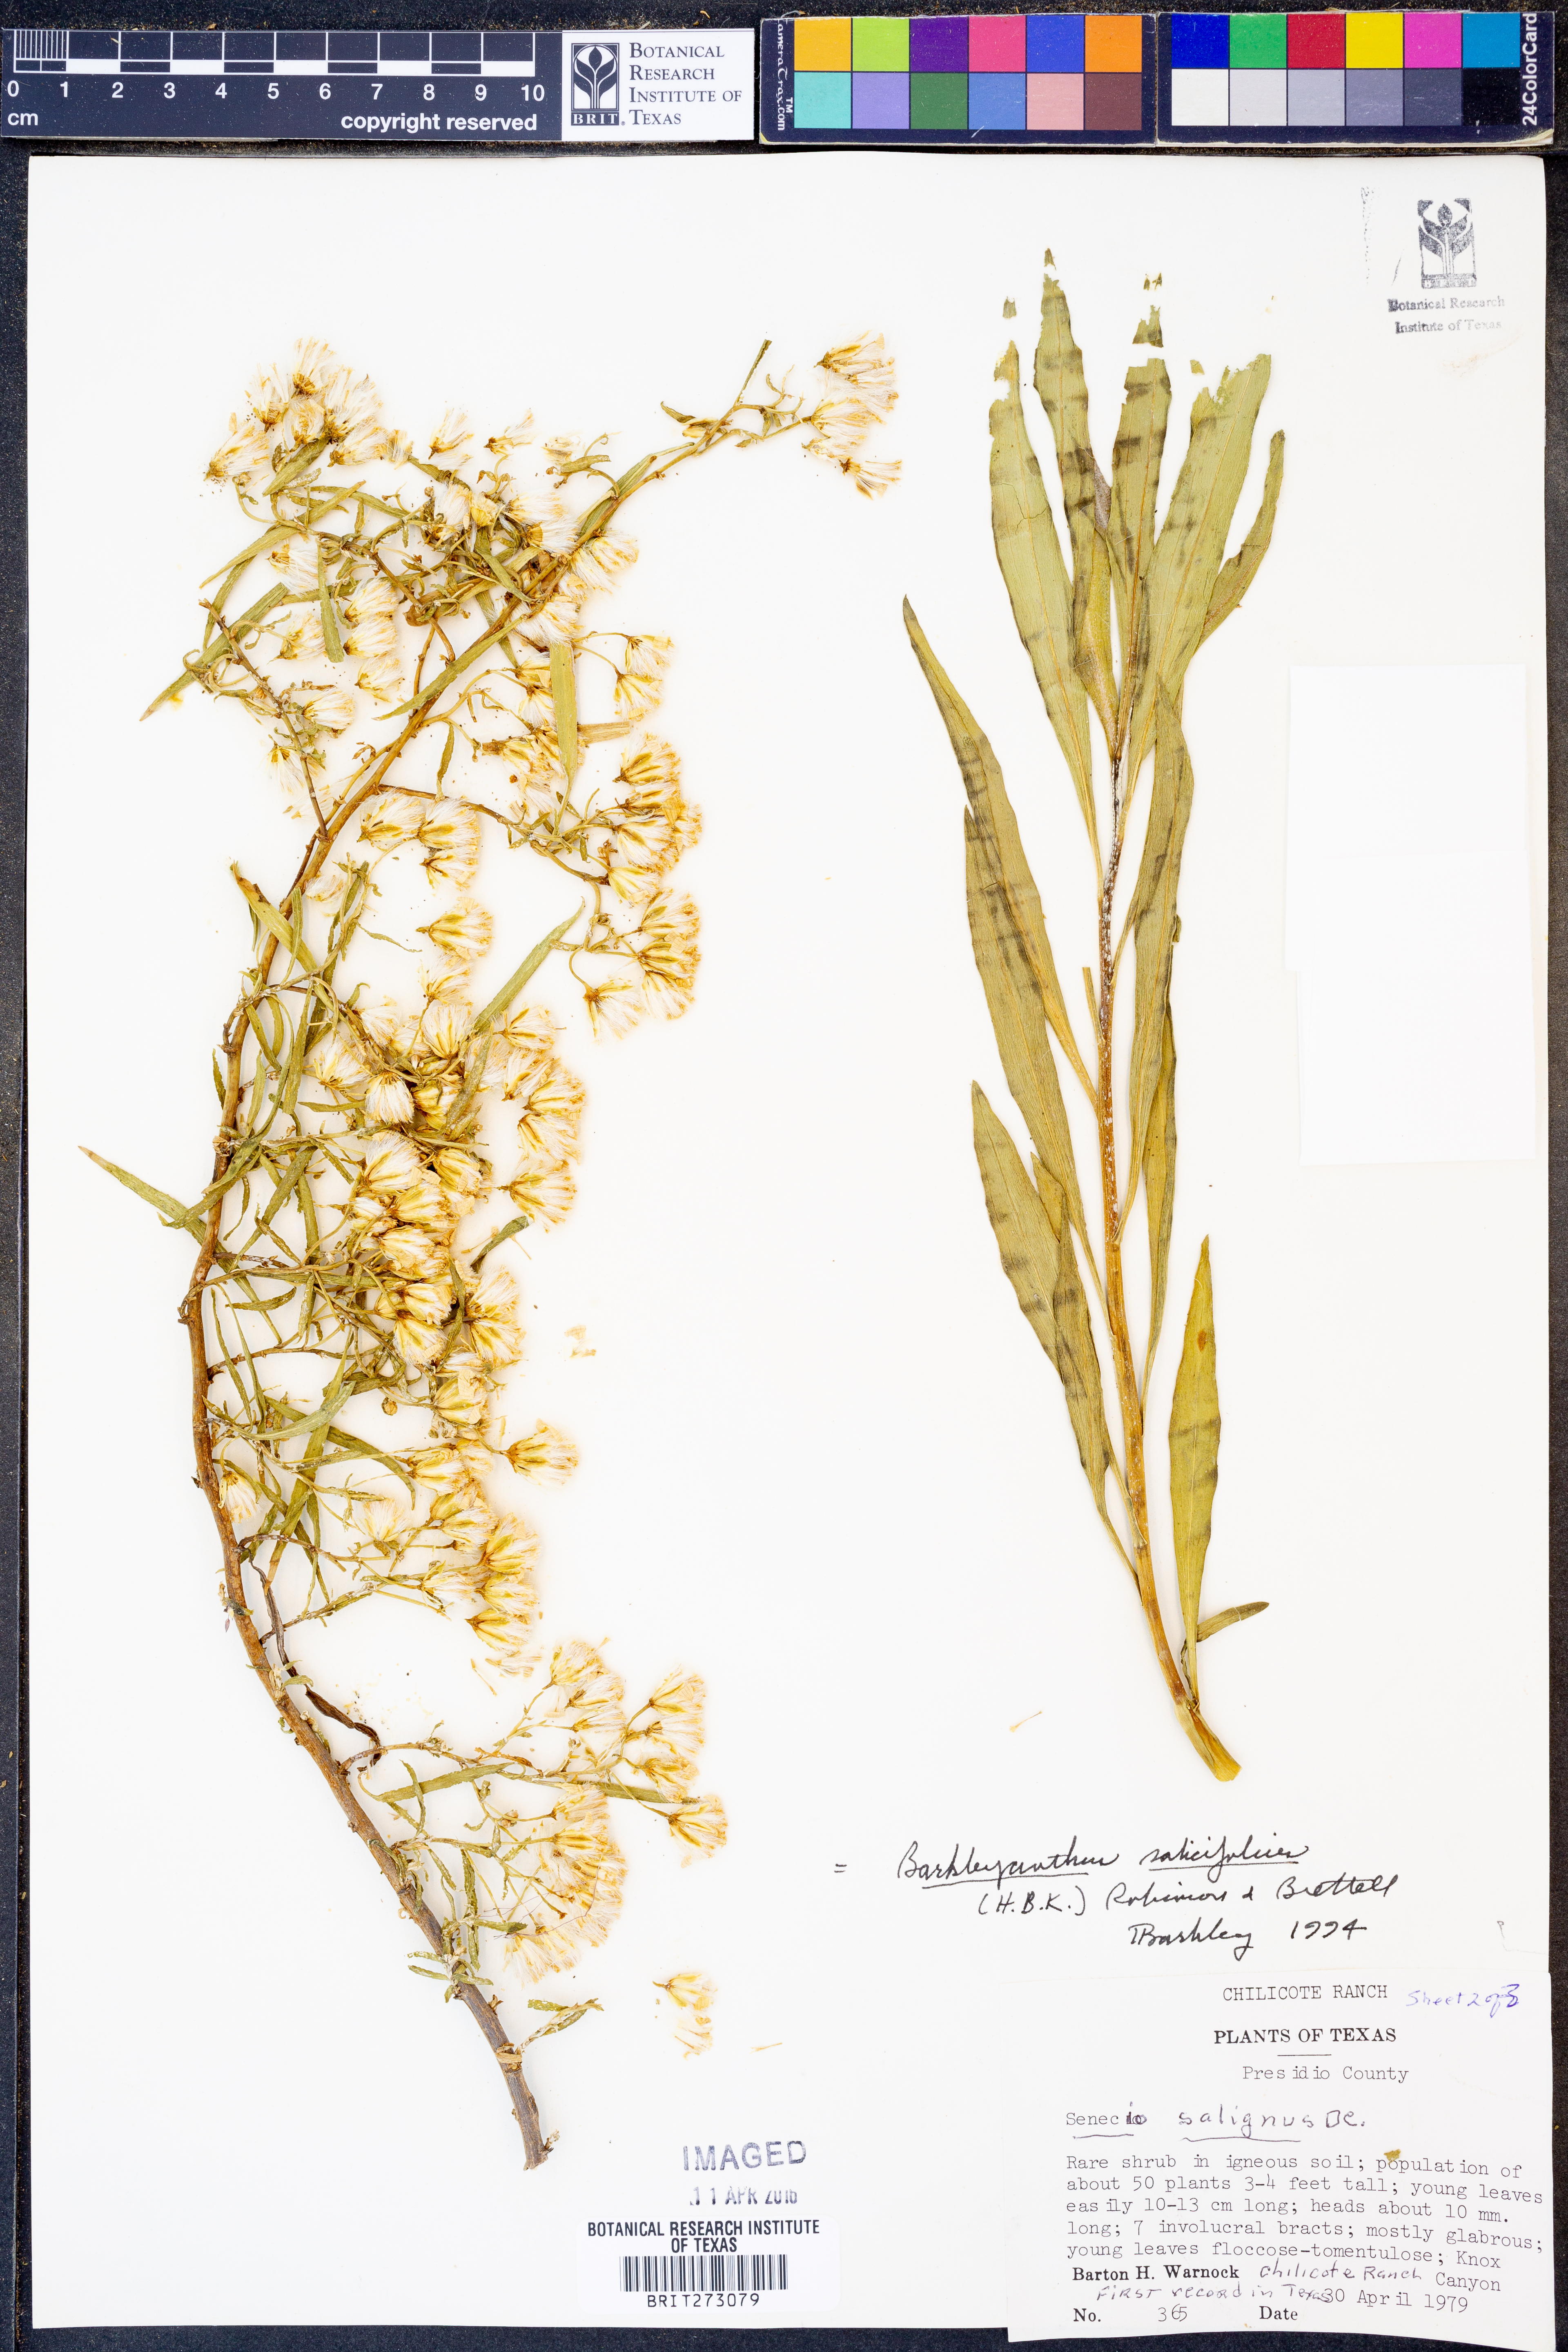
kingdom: Plantae
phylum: Tracheophyta
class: Magnoliopsida
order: Asterales
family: Asteraceae
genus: Barkleyanthus
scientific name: Barkleyanthus salicifolius
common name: Willow ragwort
